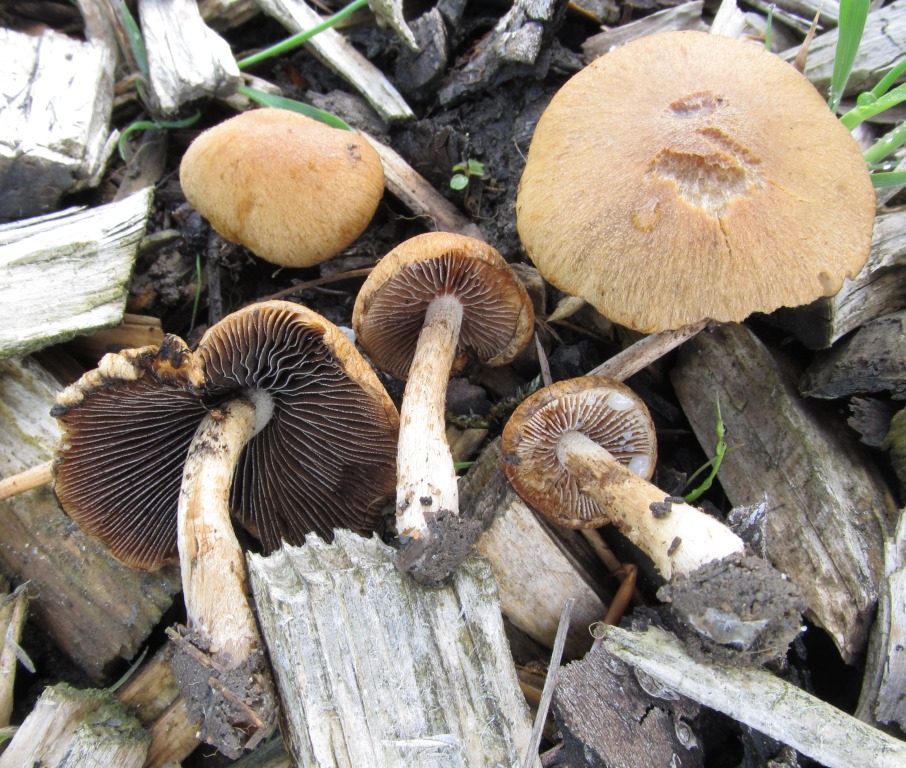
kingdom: Fungi
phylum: Basidiomycota
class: Agaricomycetes
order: Agaricales
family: Psathyrellaceae
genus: Lacrymaria
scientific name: Lacrymaria lacrymabunda
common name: grædende mørkhat
